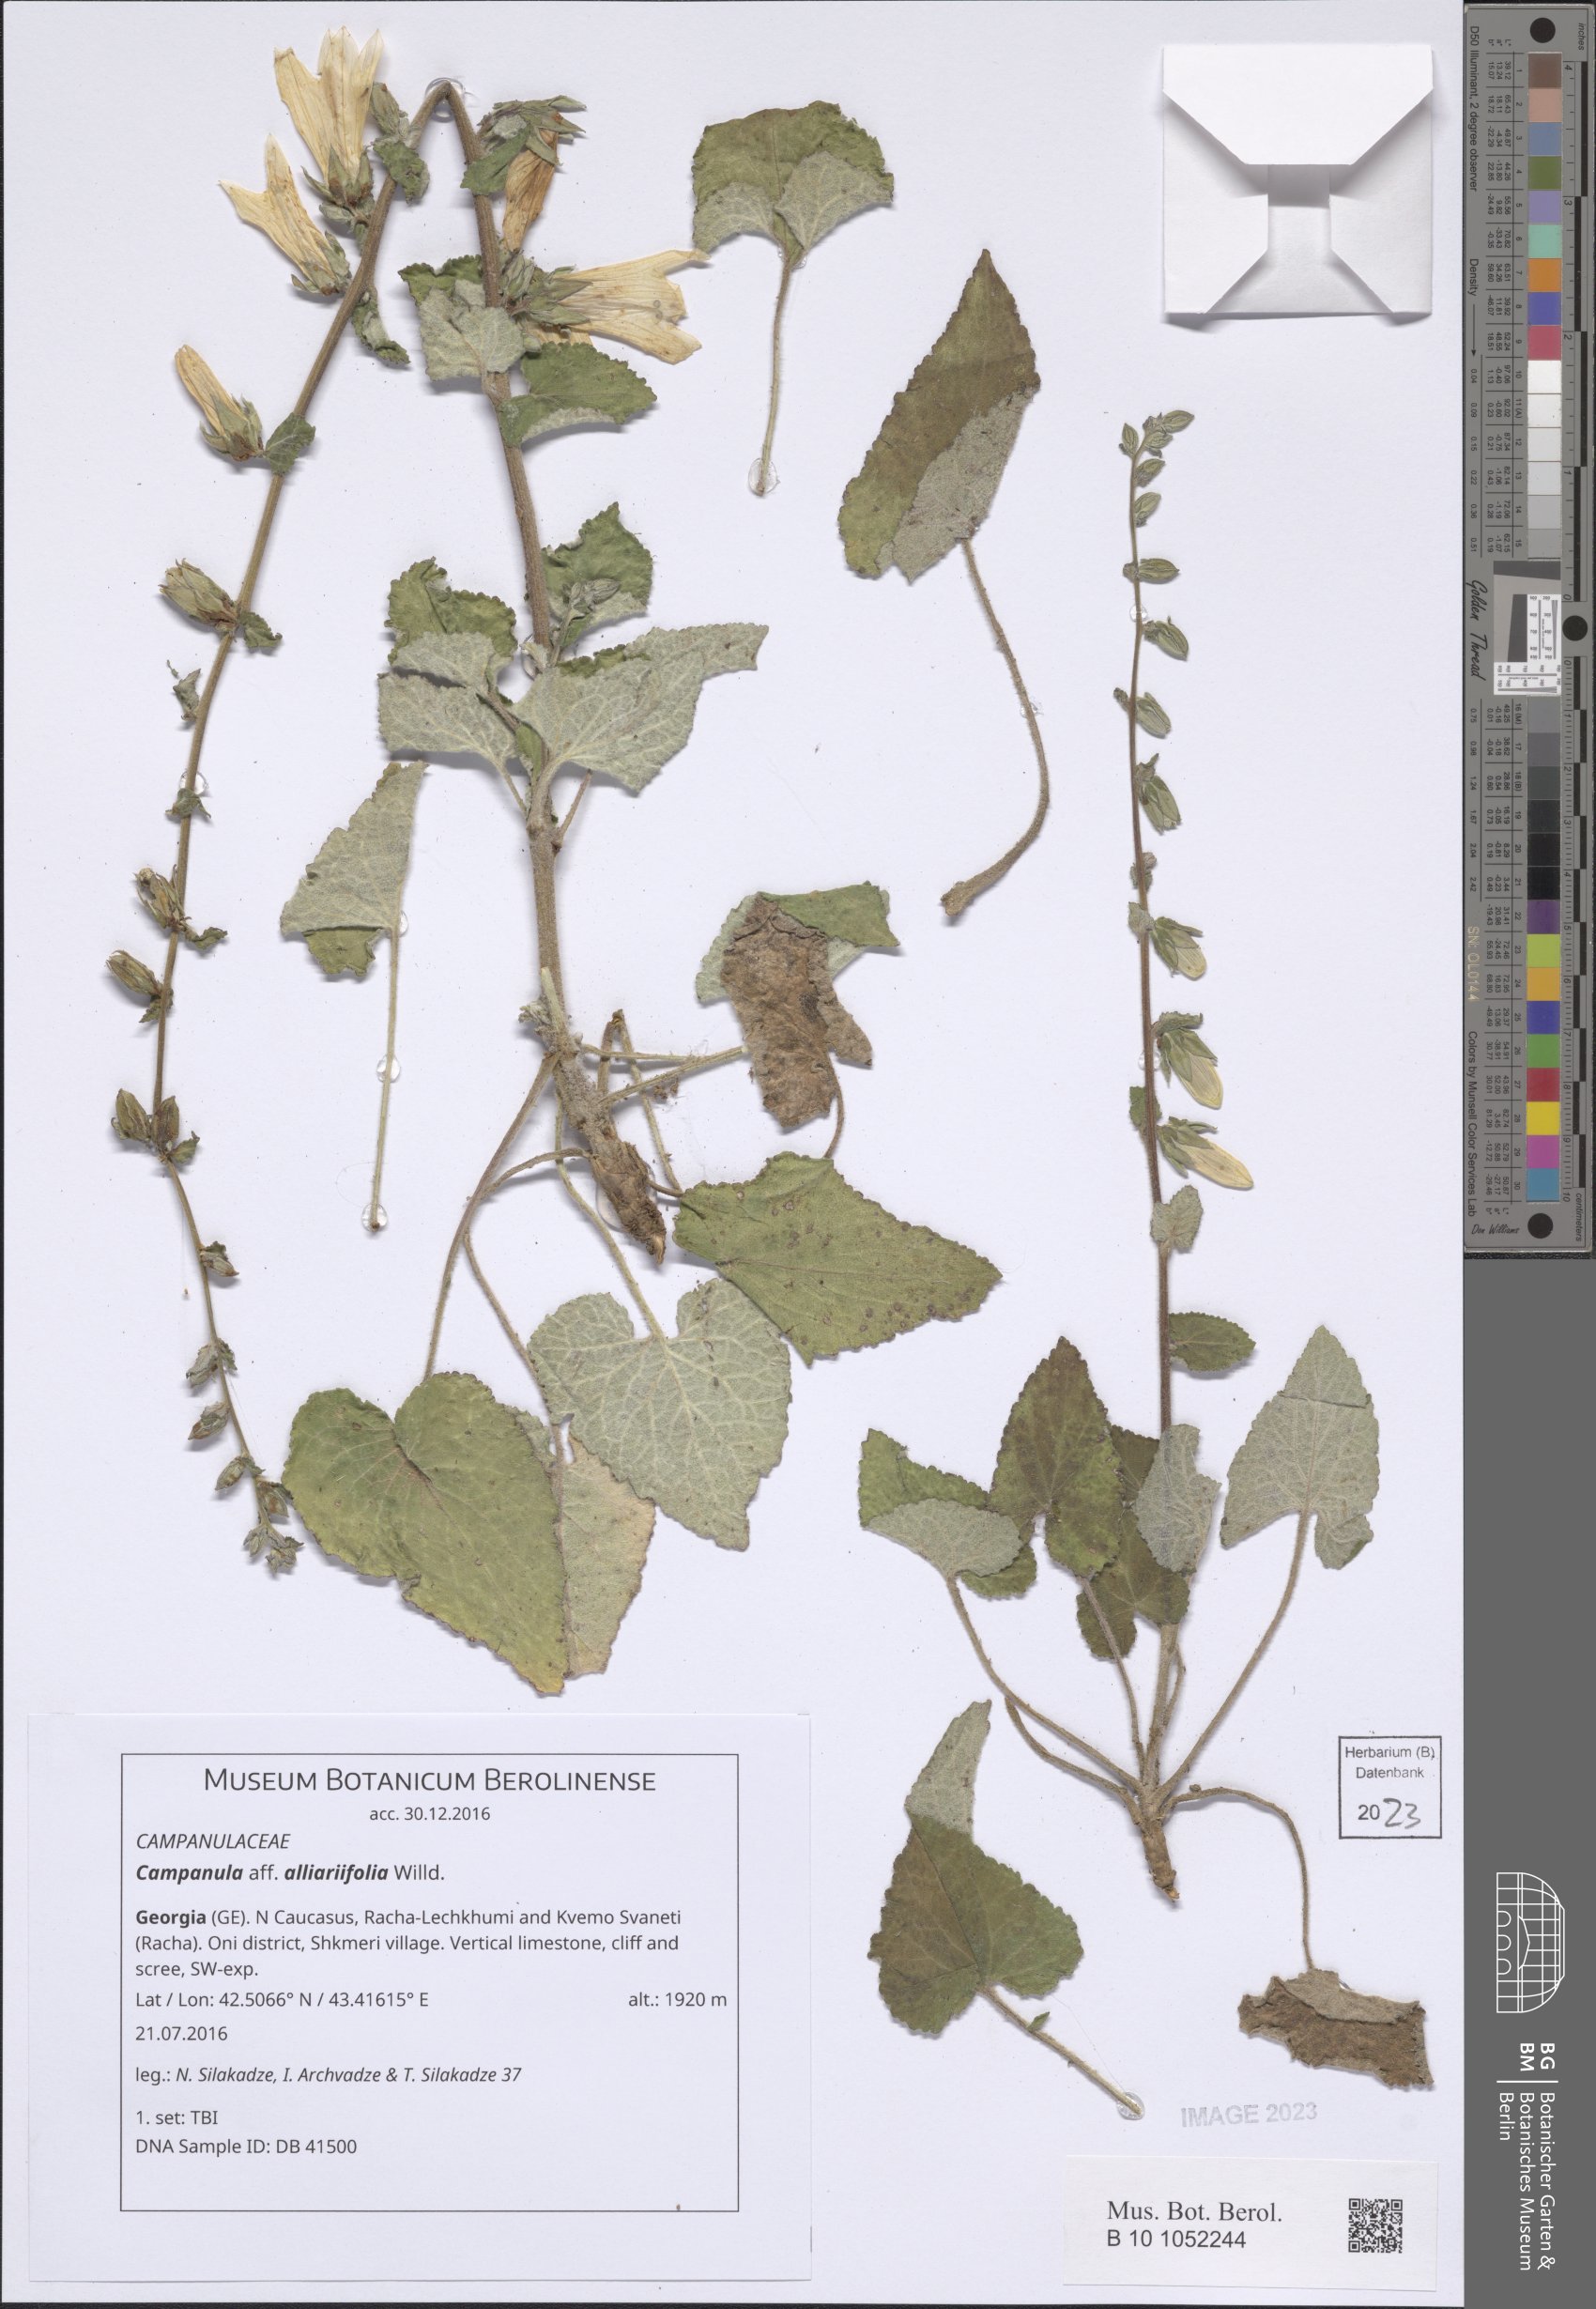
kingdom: Plantae
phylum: Tracheophyta
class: Magnoliopsida
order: Asterales
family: Campanulaceae
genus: Campanula
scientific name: Campanula alliariifolia
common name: Cornish bellflower
